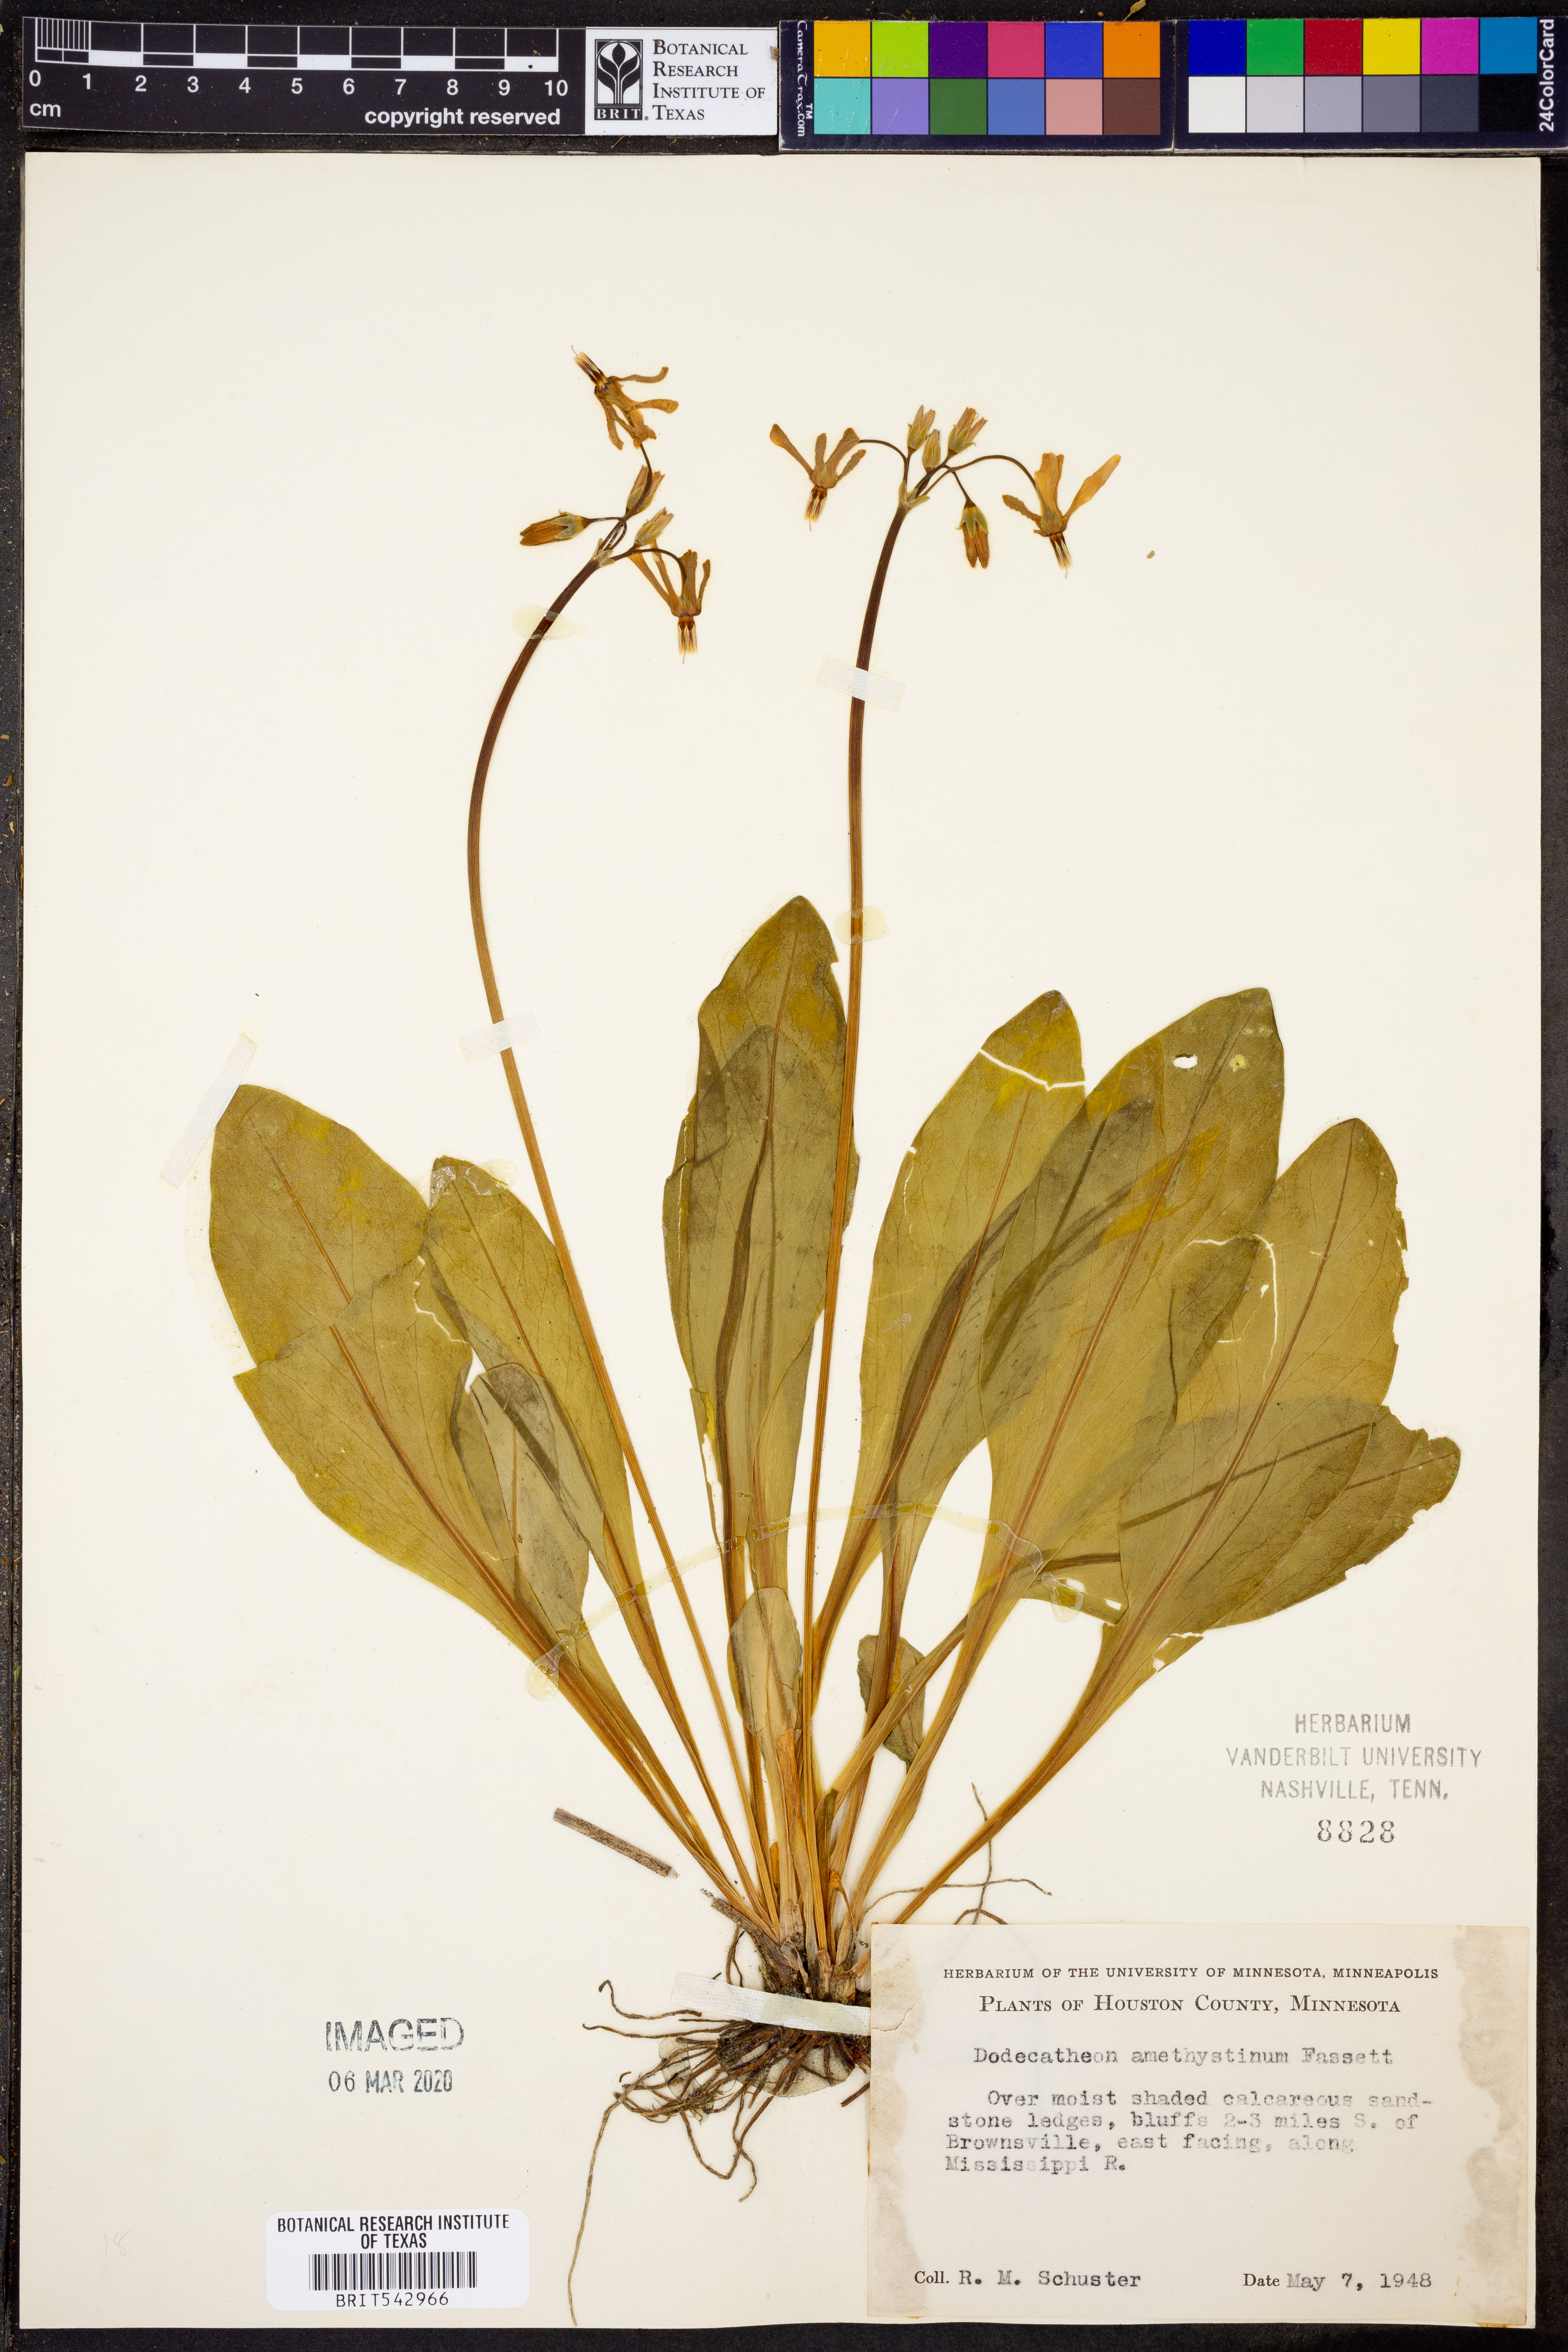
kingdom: Plantae
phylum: Tracheophyta
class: Magnoliopsida
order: Ericales
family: Primulaceae
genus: Dodecatheon
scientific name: Dodecatheon amethystinum
